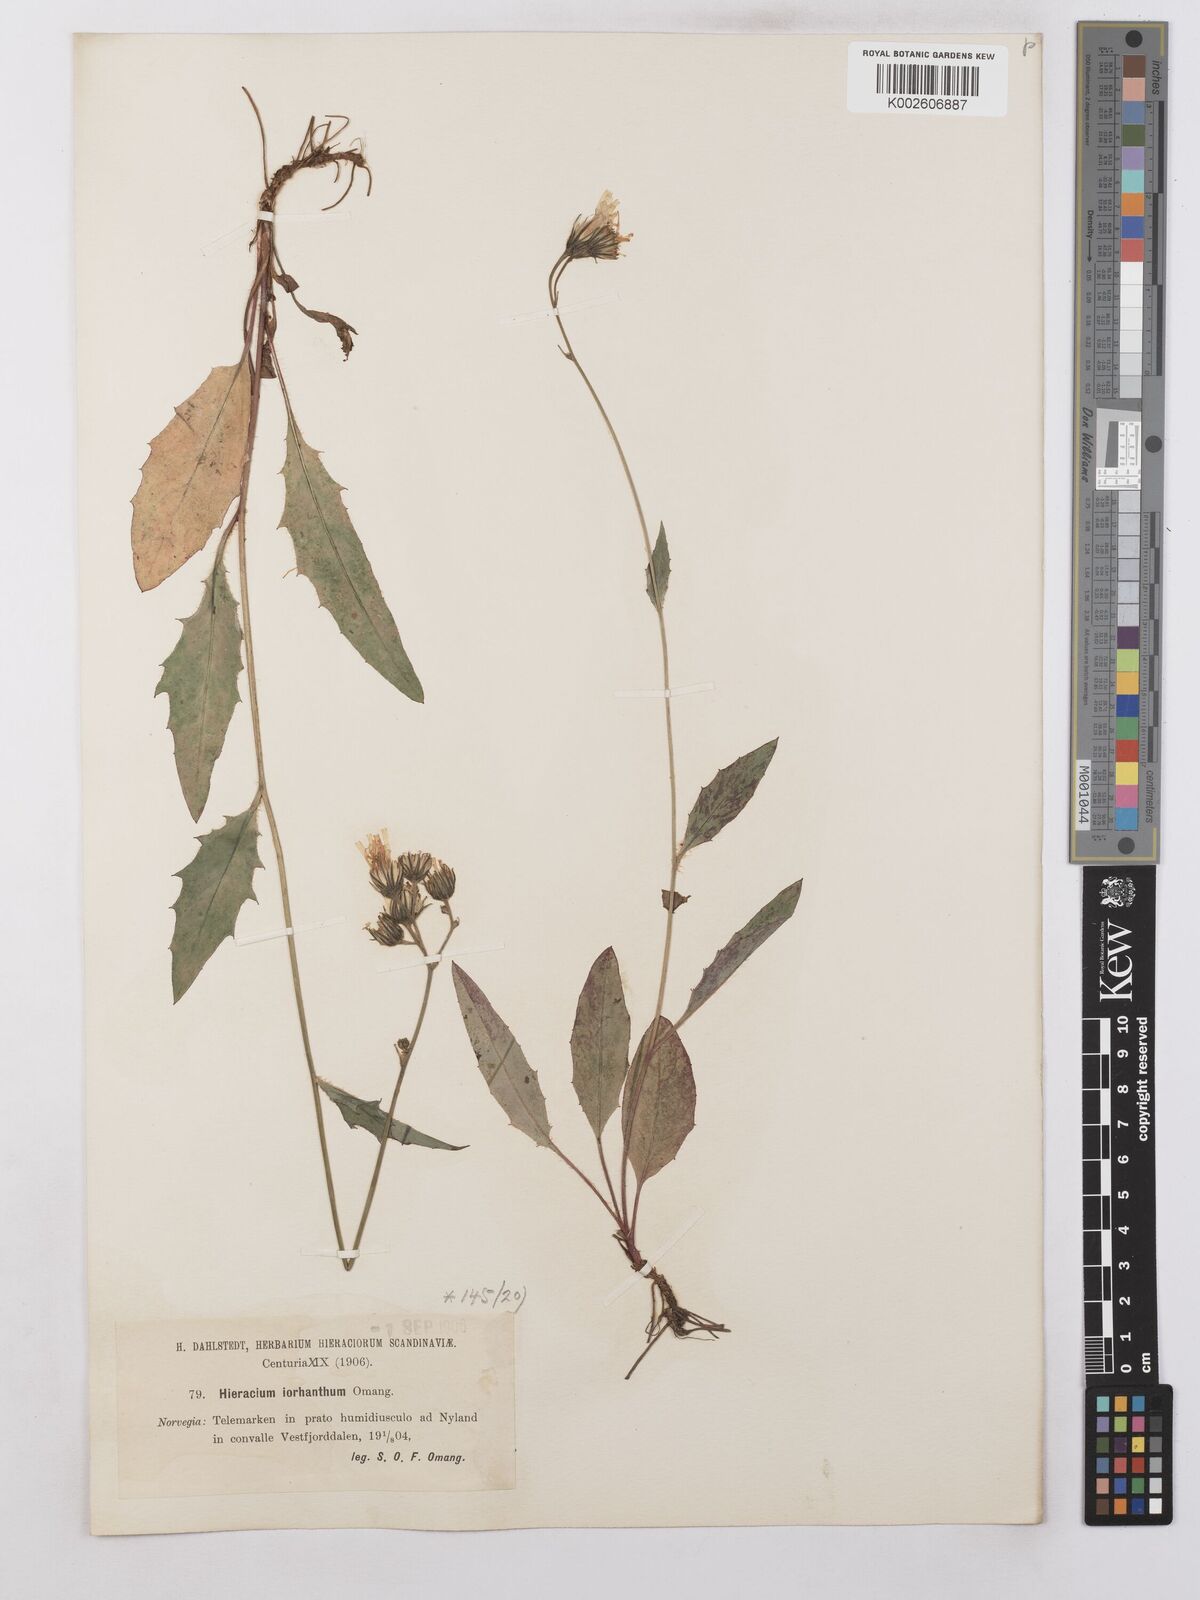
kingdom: Plantae
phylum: Tracheophyta
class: Magnoliopsida
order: Asterales
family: Asteraceae
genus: Hieracium
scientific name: Hieracium levicaule
